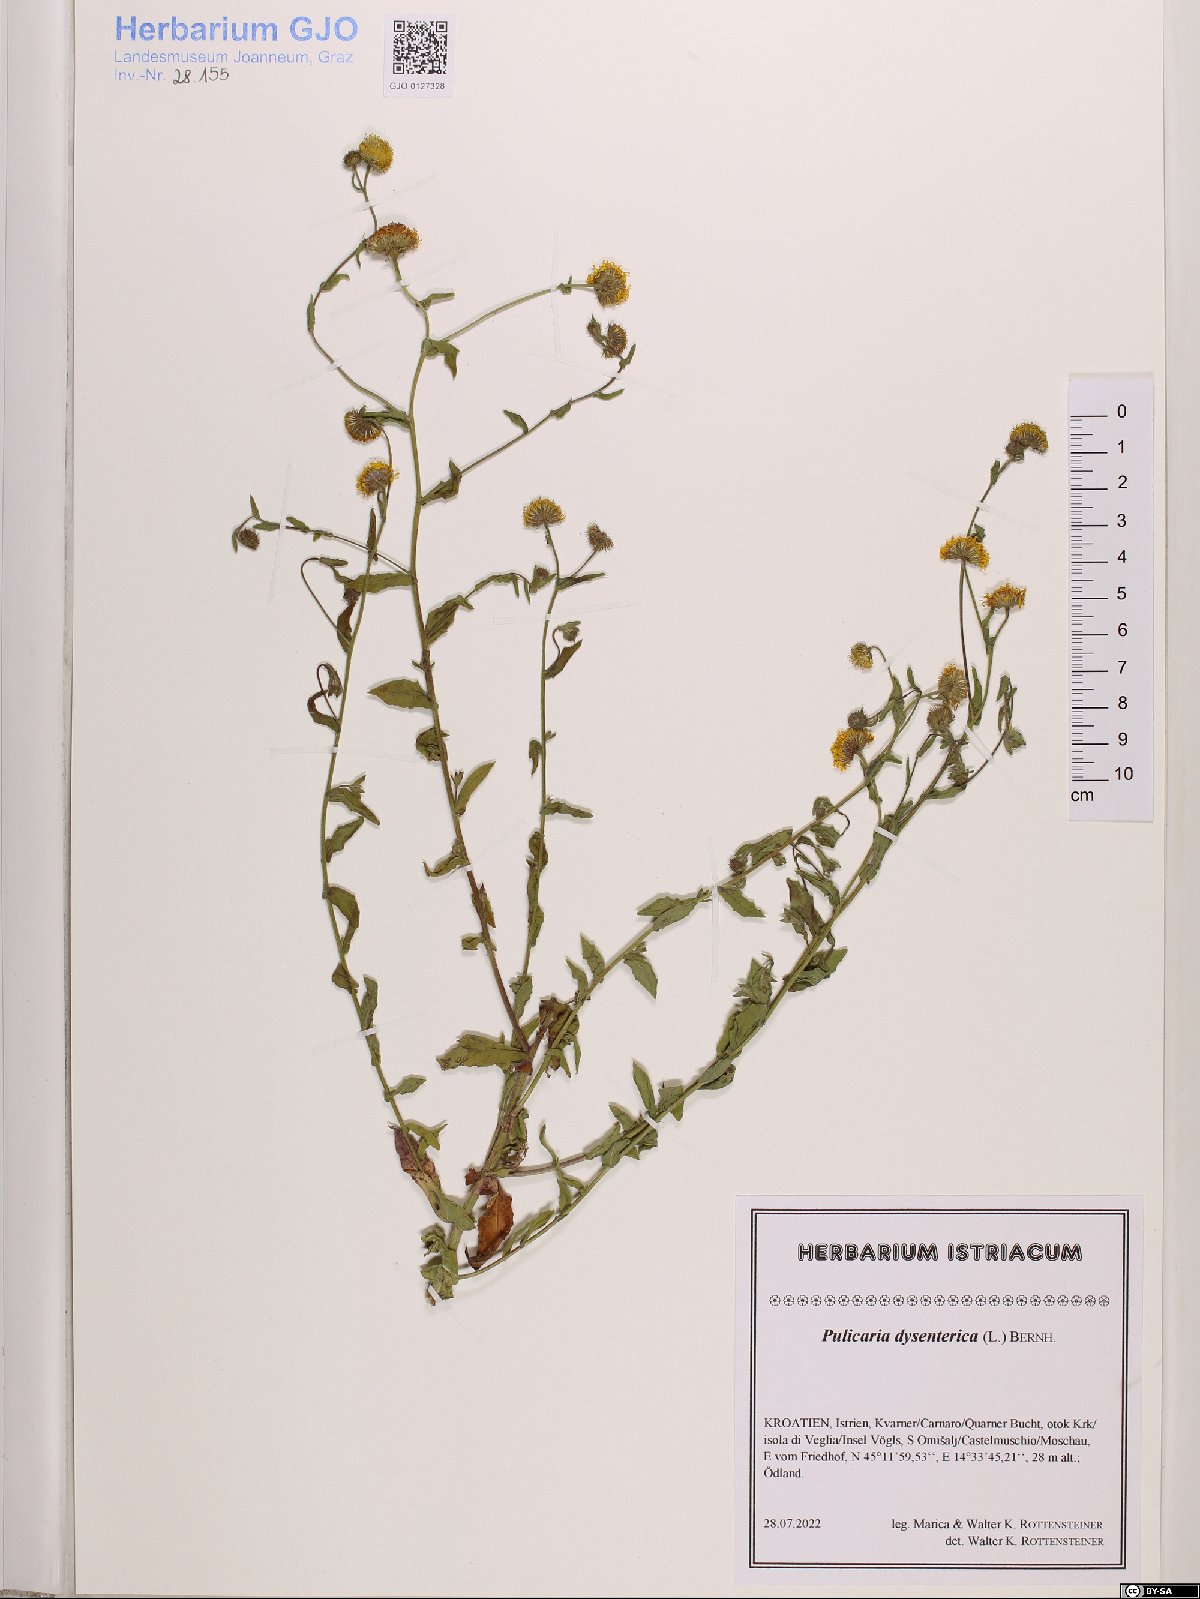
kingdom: Plantae
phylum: Tracheophyta
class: Magnoliopsida
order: Asterales
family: Asteraceae
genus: Pulicaria
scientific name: Pulicaria dysenterica
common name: Common fleabane
